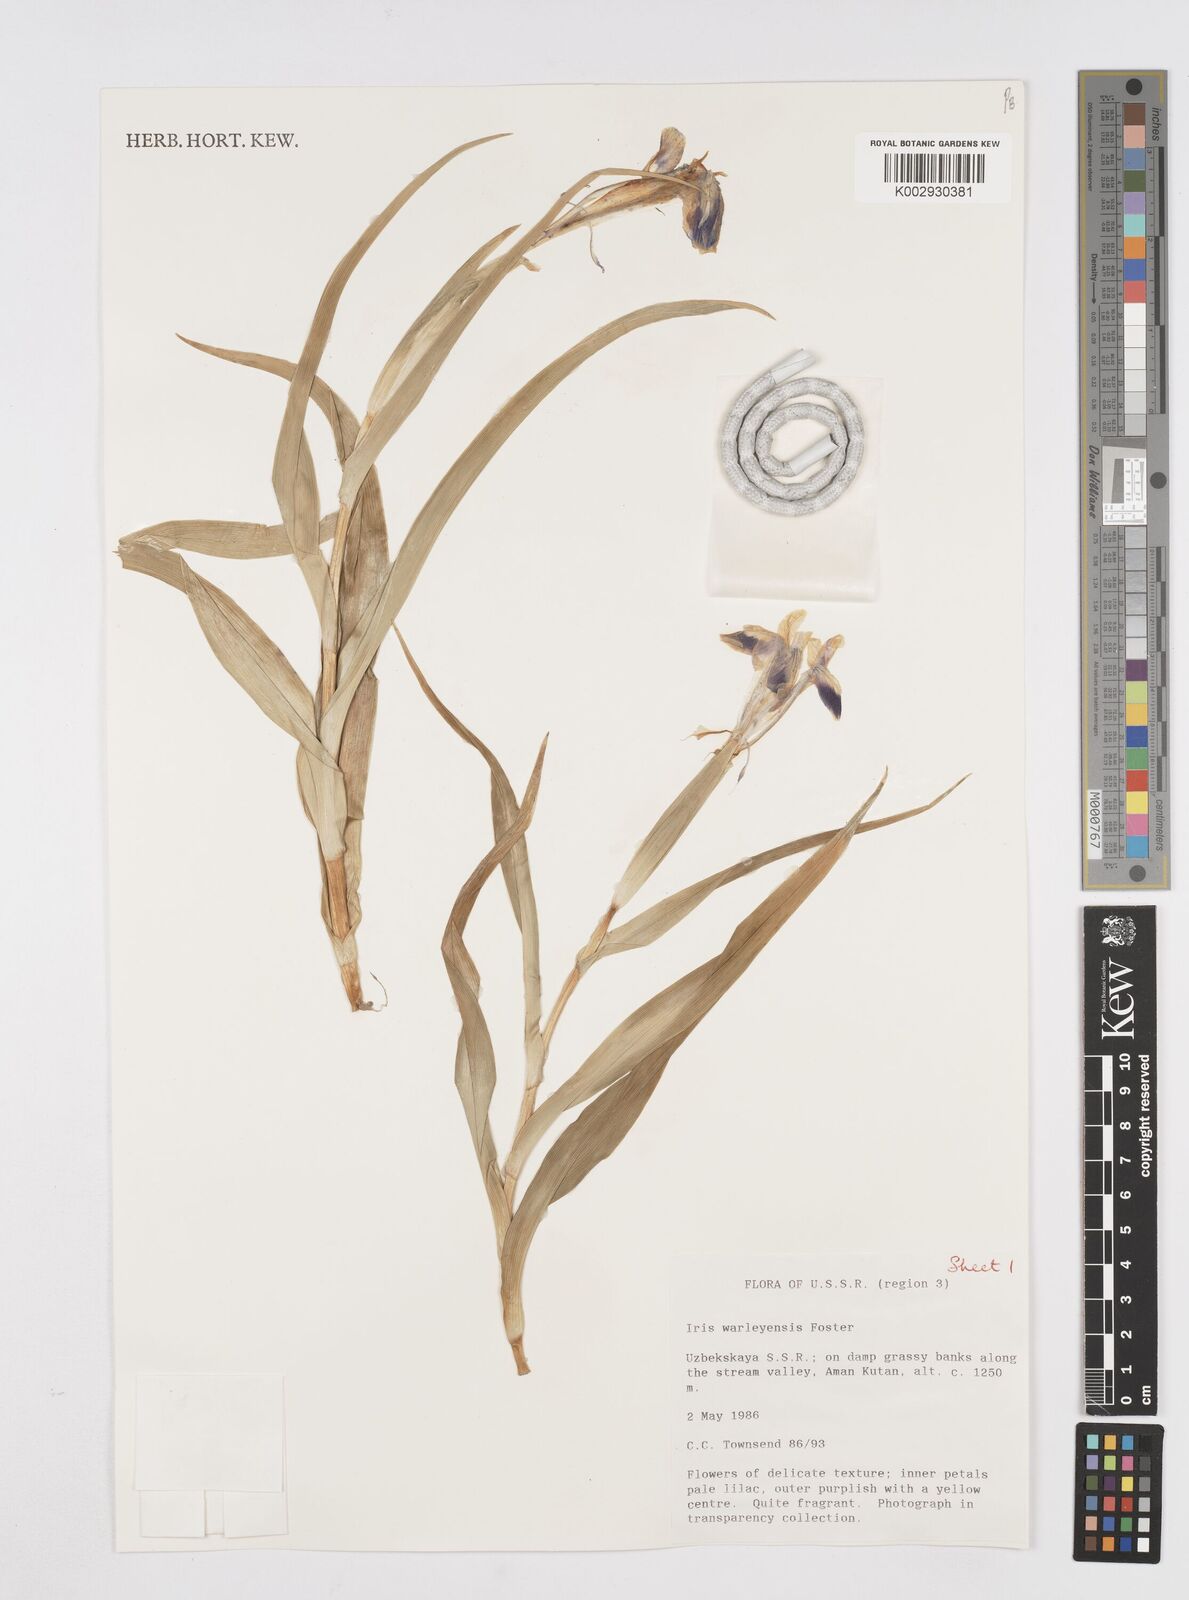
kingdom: Plantae
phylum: Tracheophyta
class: Liliopsida
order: Asparagales
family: Iridaceae
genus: Iris
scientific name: Iris warleyensis
